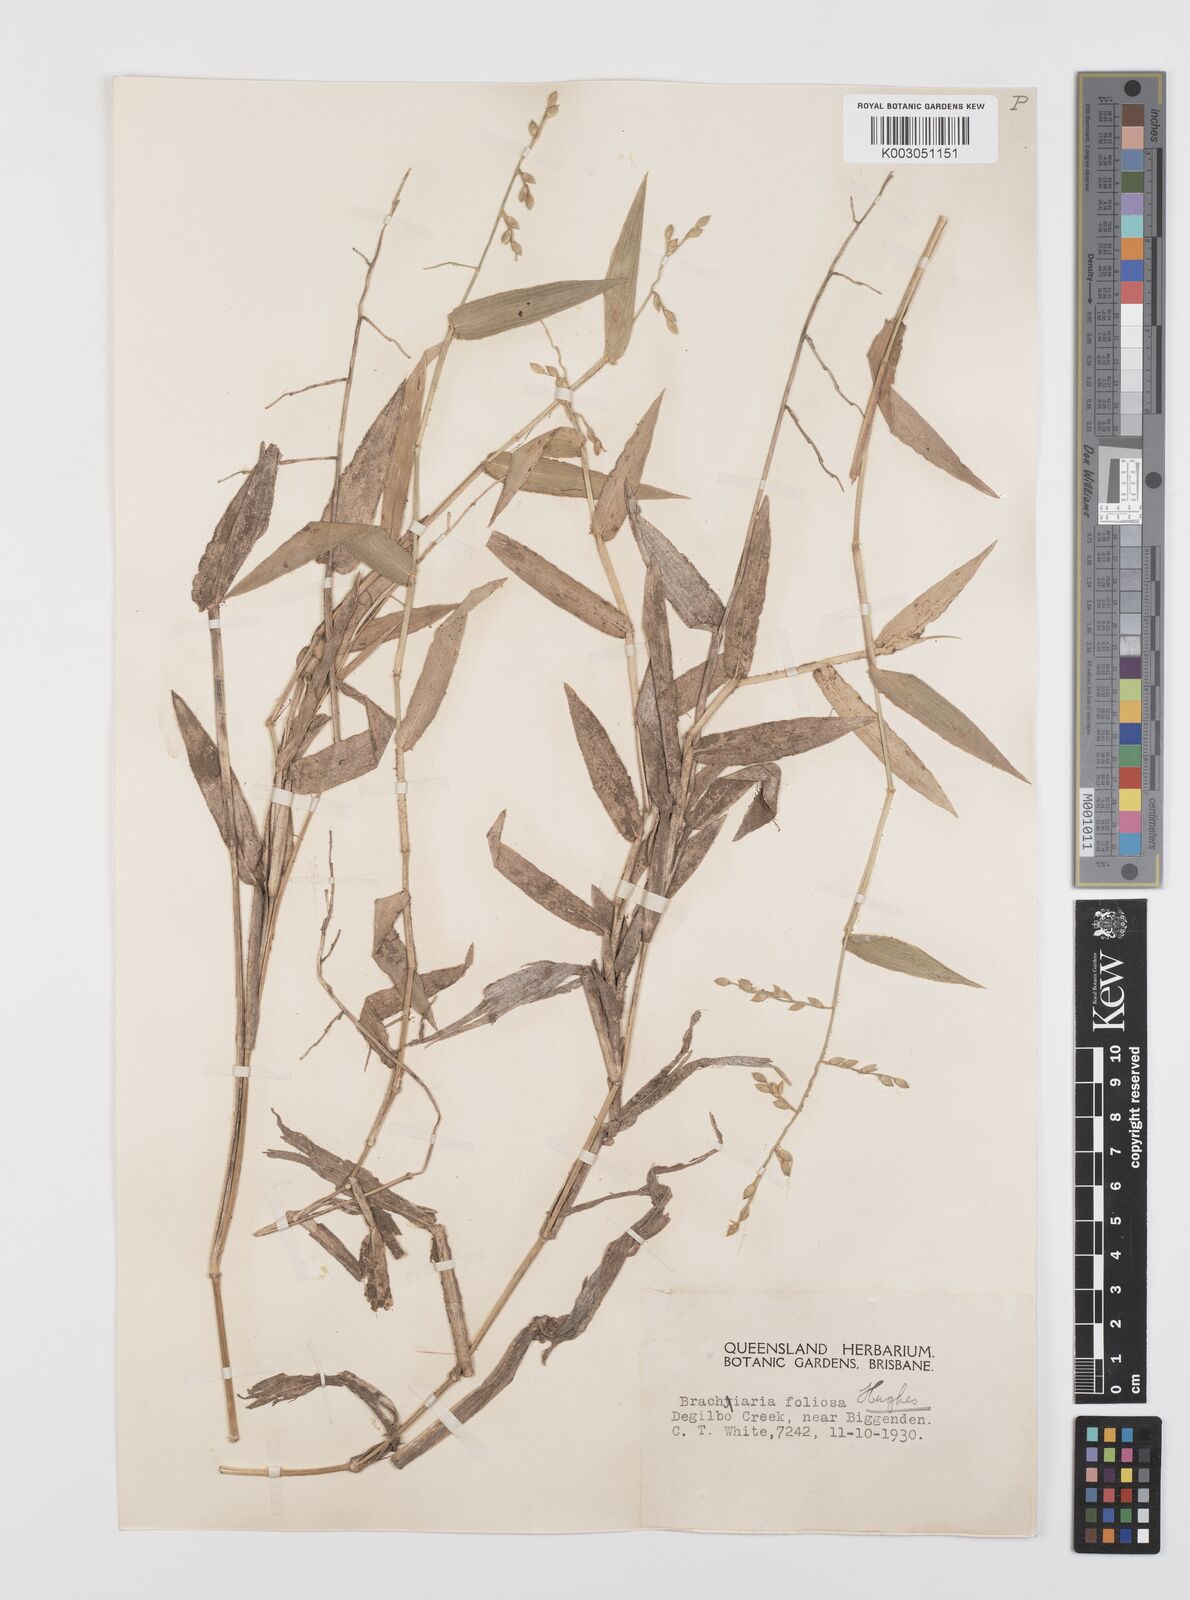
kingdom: Plantae
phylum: Tracheophyta
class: Liliopsida
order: Poales
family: Poaceae
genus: Urochloa
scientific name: Urochloa foliosa
